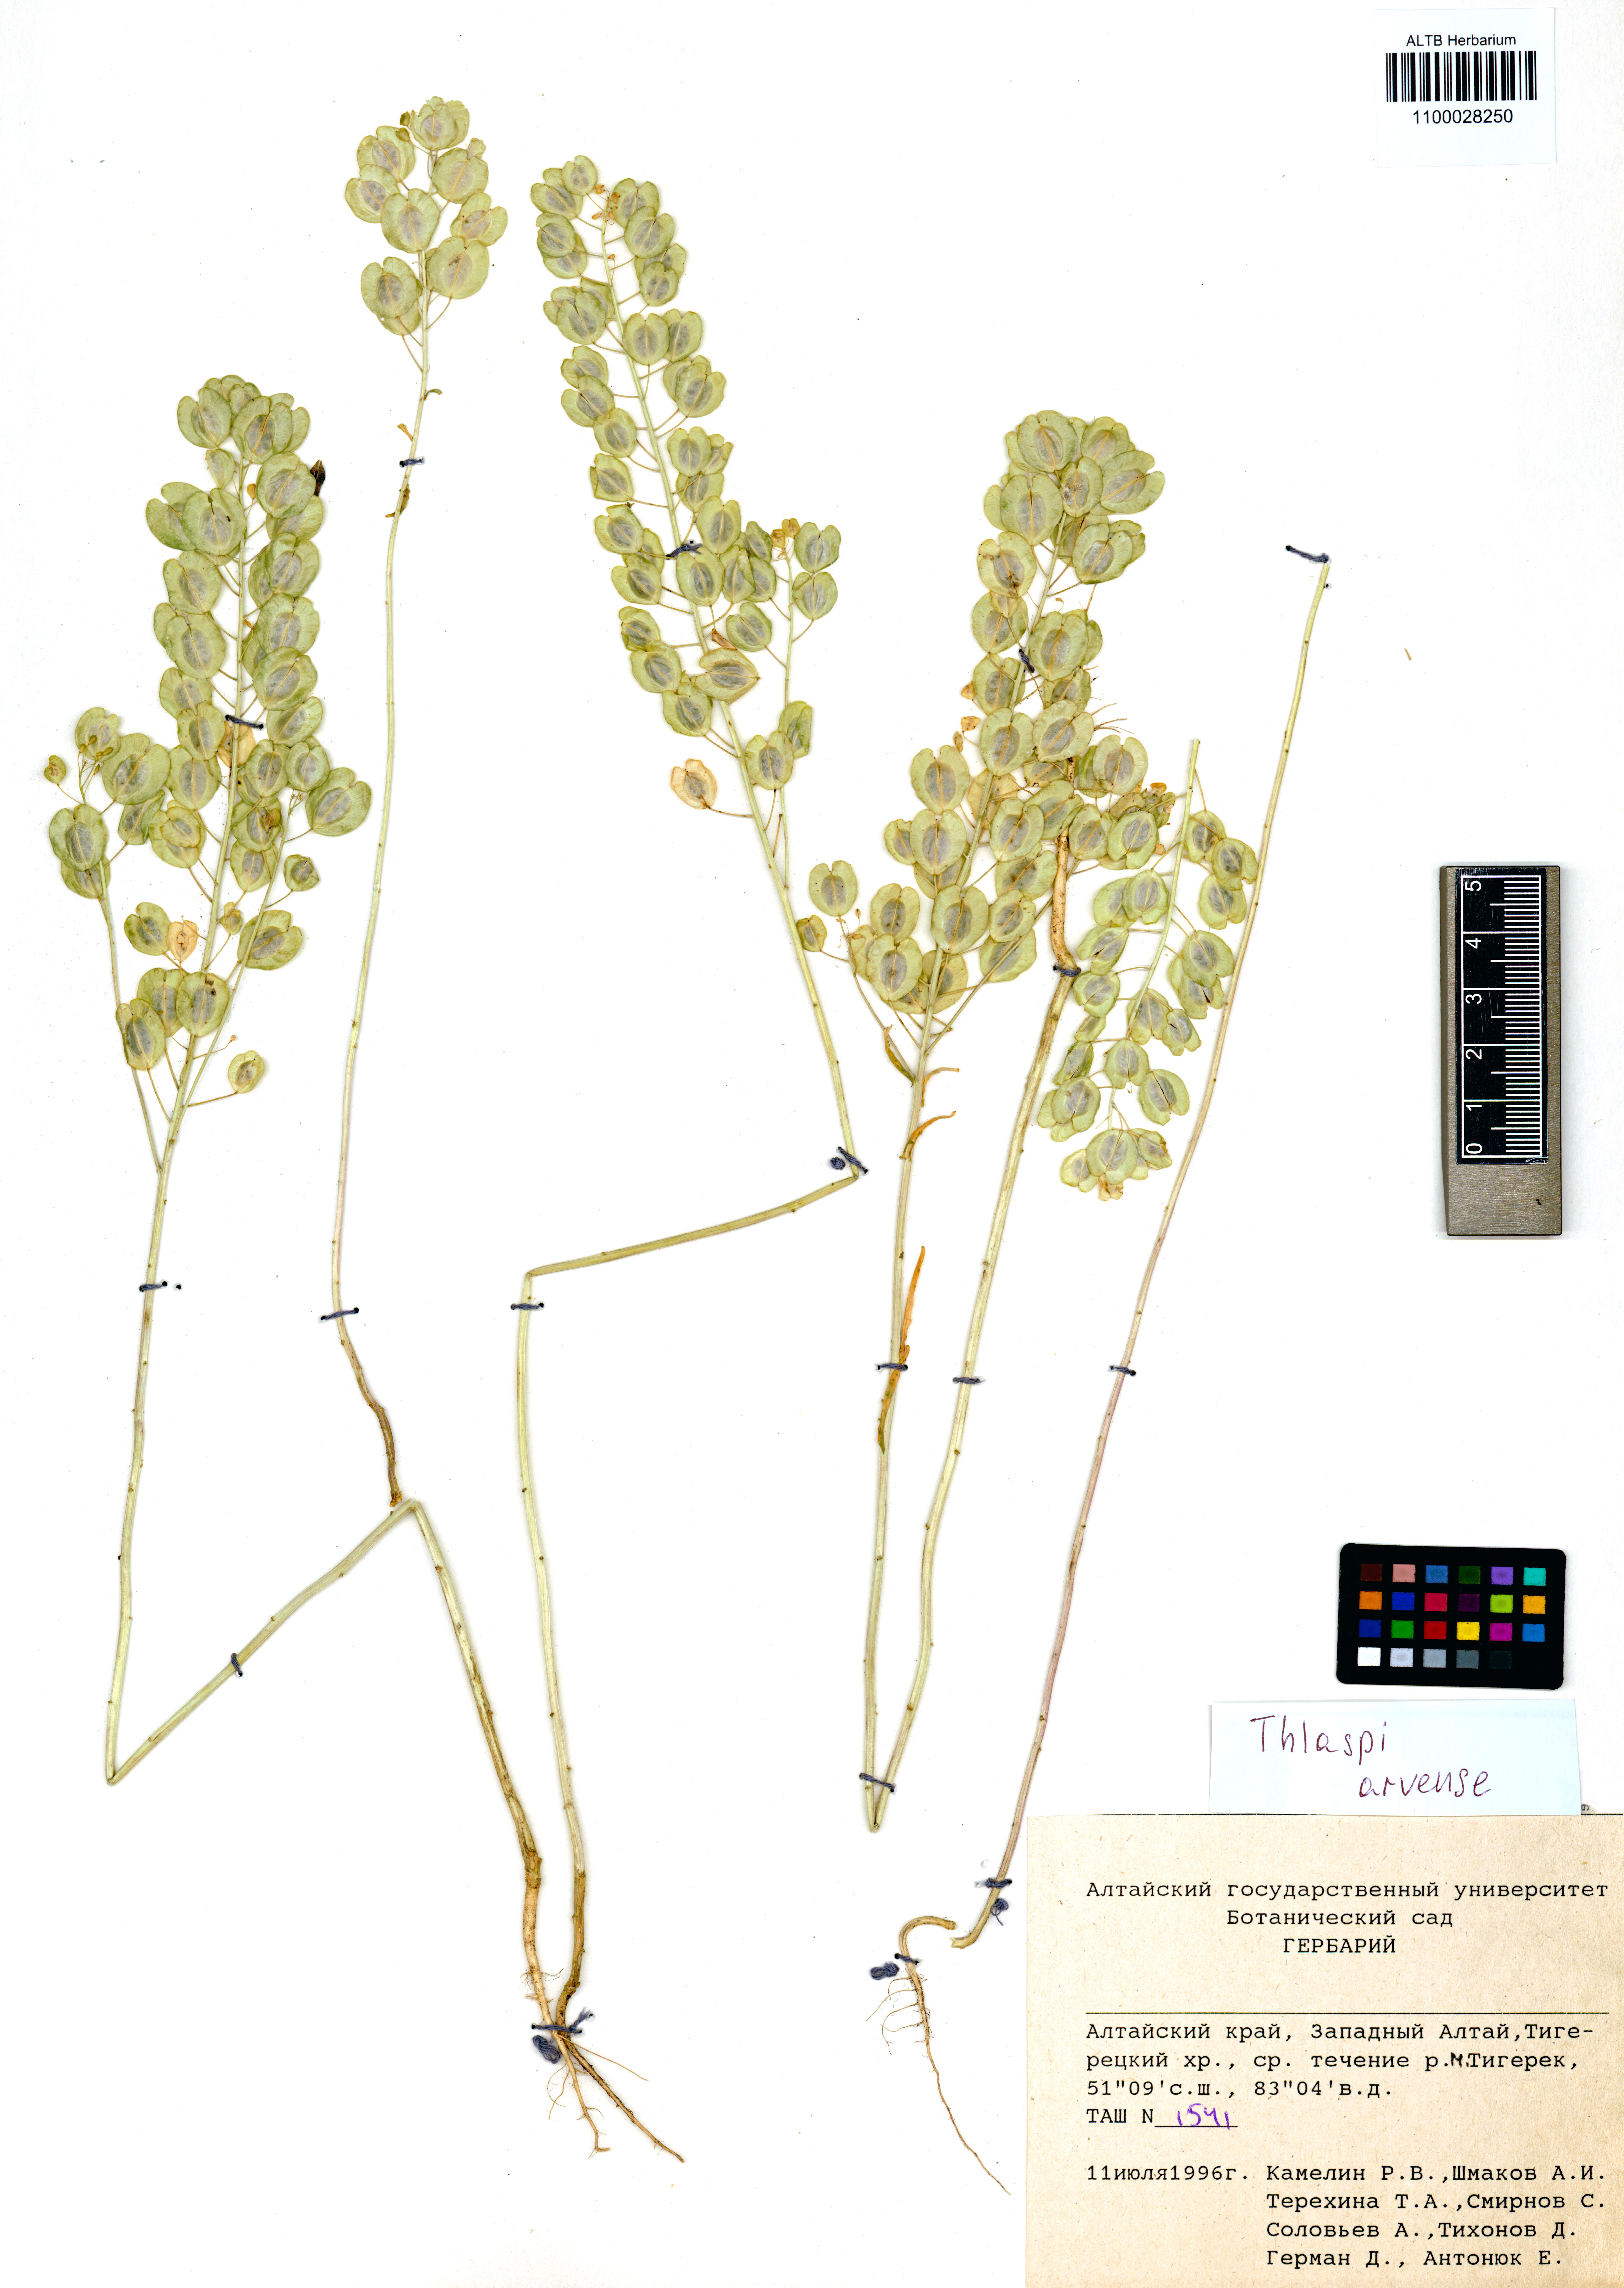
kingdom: Plantae
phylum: Tracheophyta
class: Magnoliopsida
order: Brassicales
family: Brassicaceae
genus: Thlaspi
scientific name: Thlaspi arvense
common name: Field pennycress
